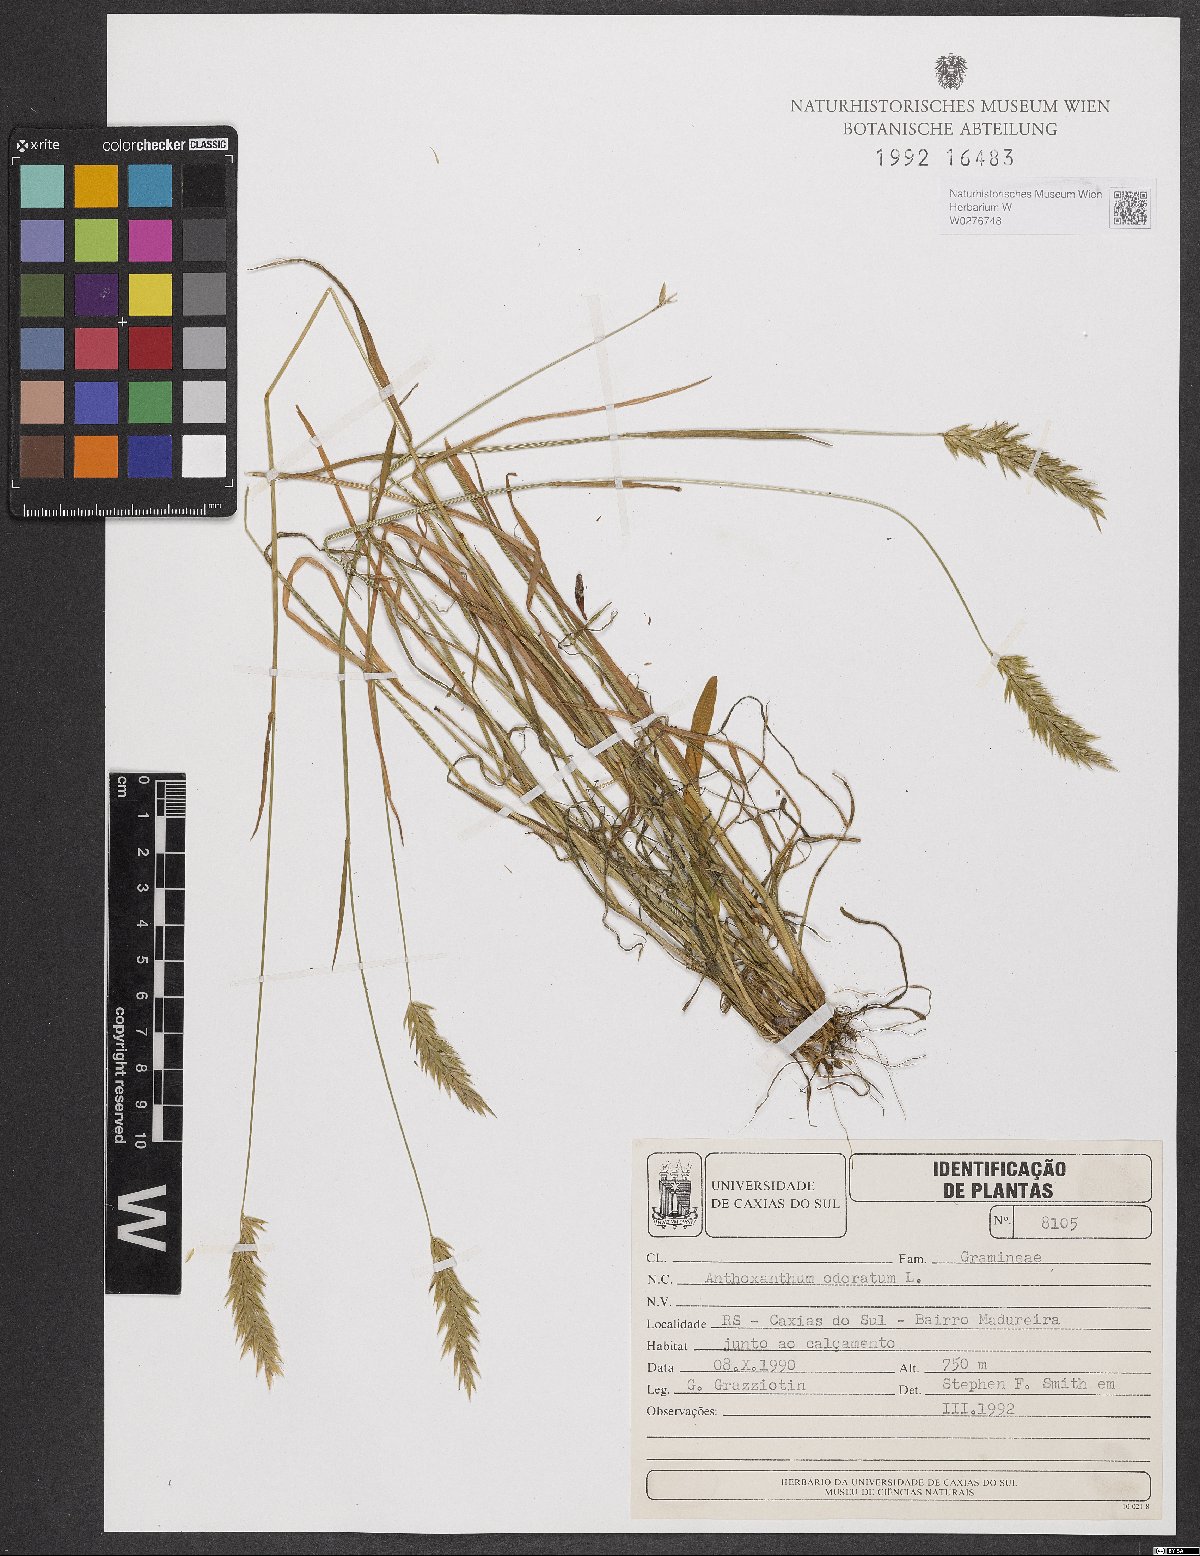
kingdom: Plantae
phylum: Tracheophyta
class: Liliopsida
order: Poales
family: Poaceae
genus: Anthoxanthum
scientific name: Anthoxanthum odoratum
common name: Sweet vernalgrass
